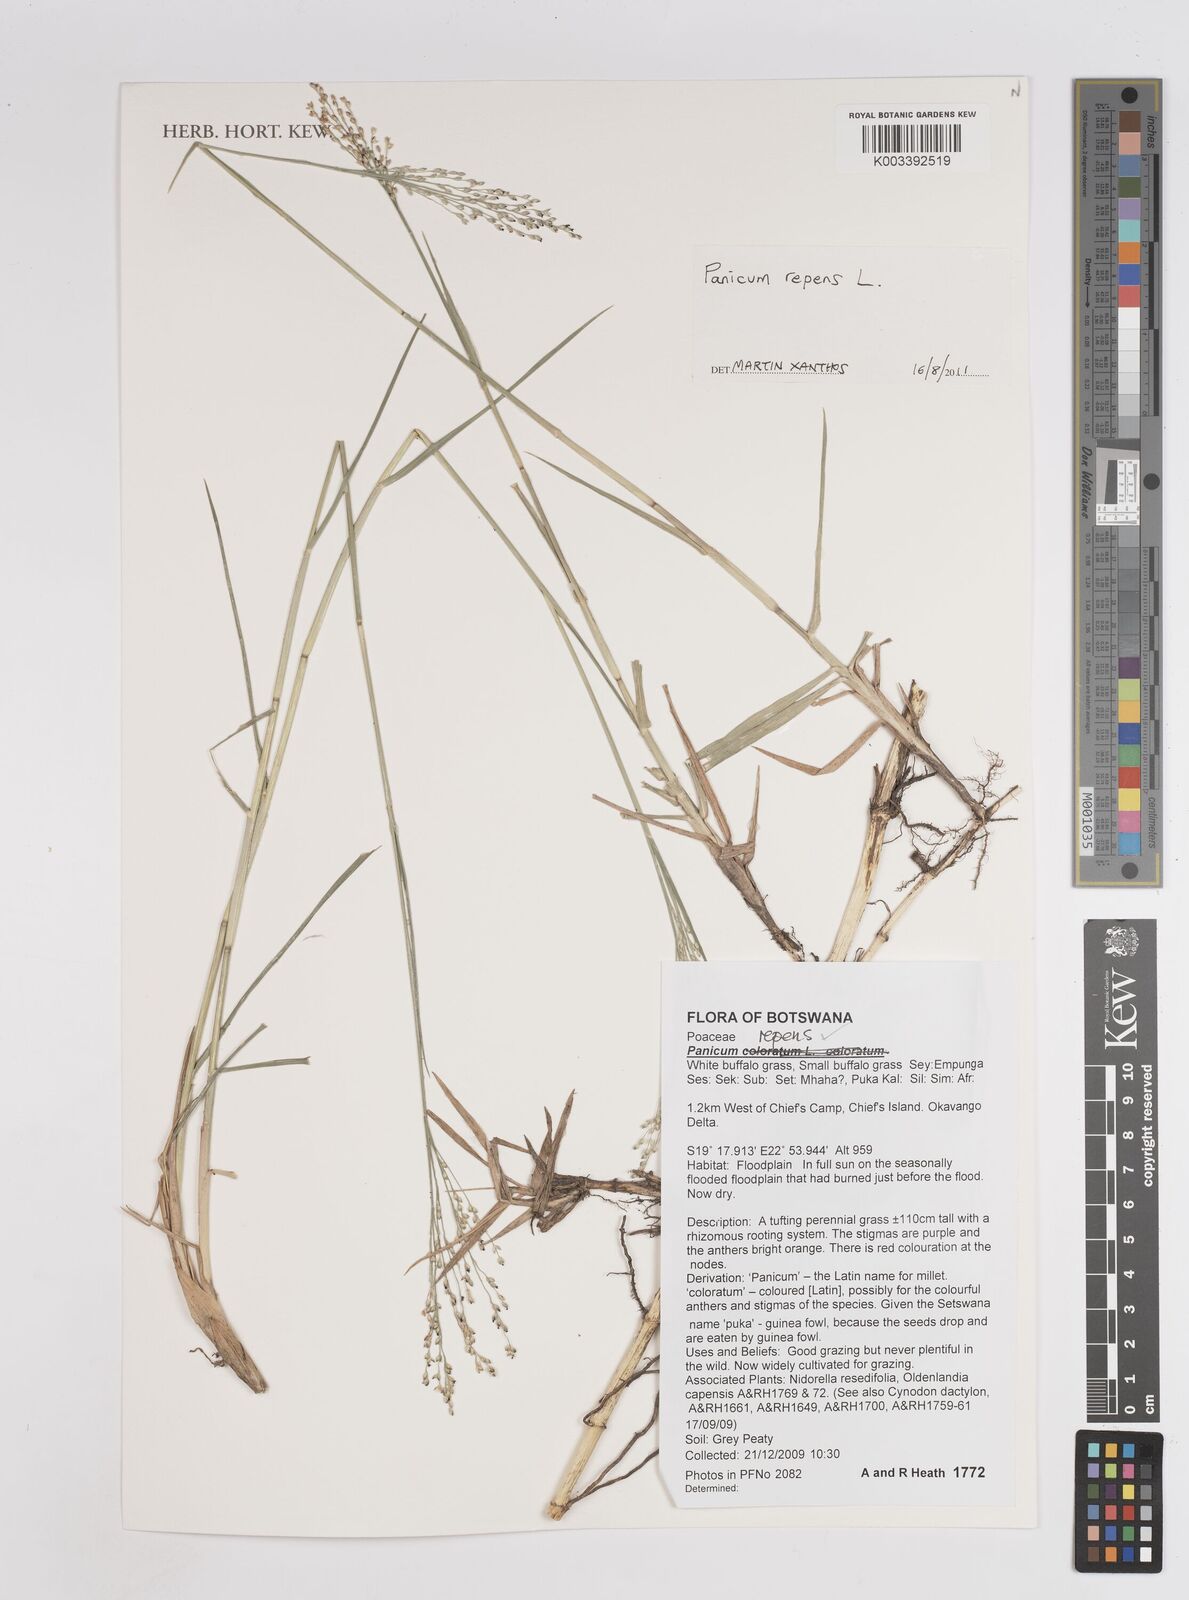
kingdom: Plantae
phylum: Tracheophyta
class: Liliopsida
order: Poales
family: Poaceae
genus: Panicum
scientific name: Panicum repens
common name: Torpedo grass
